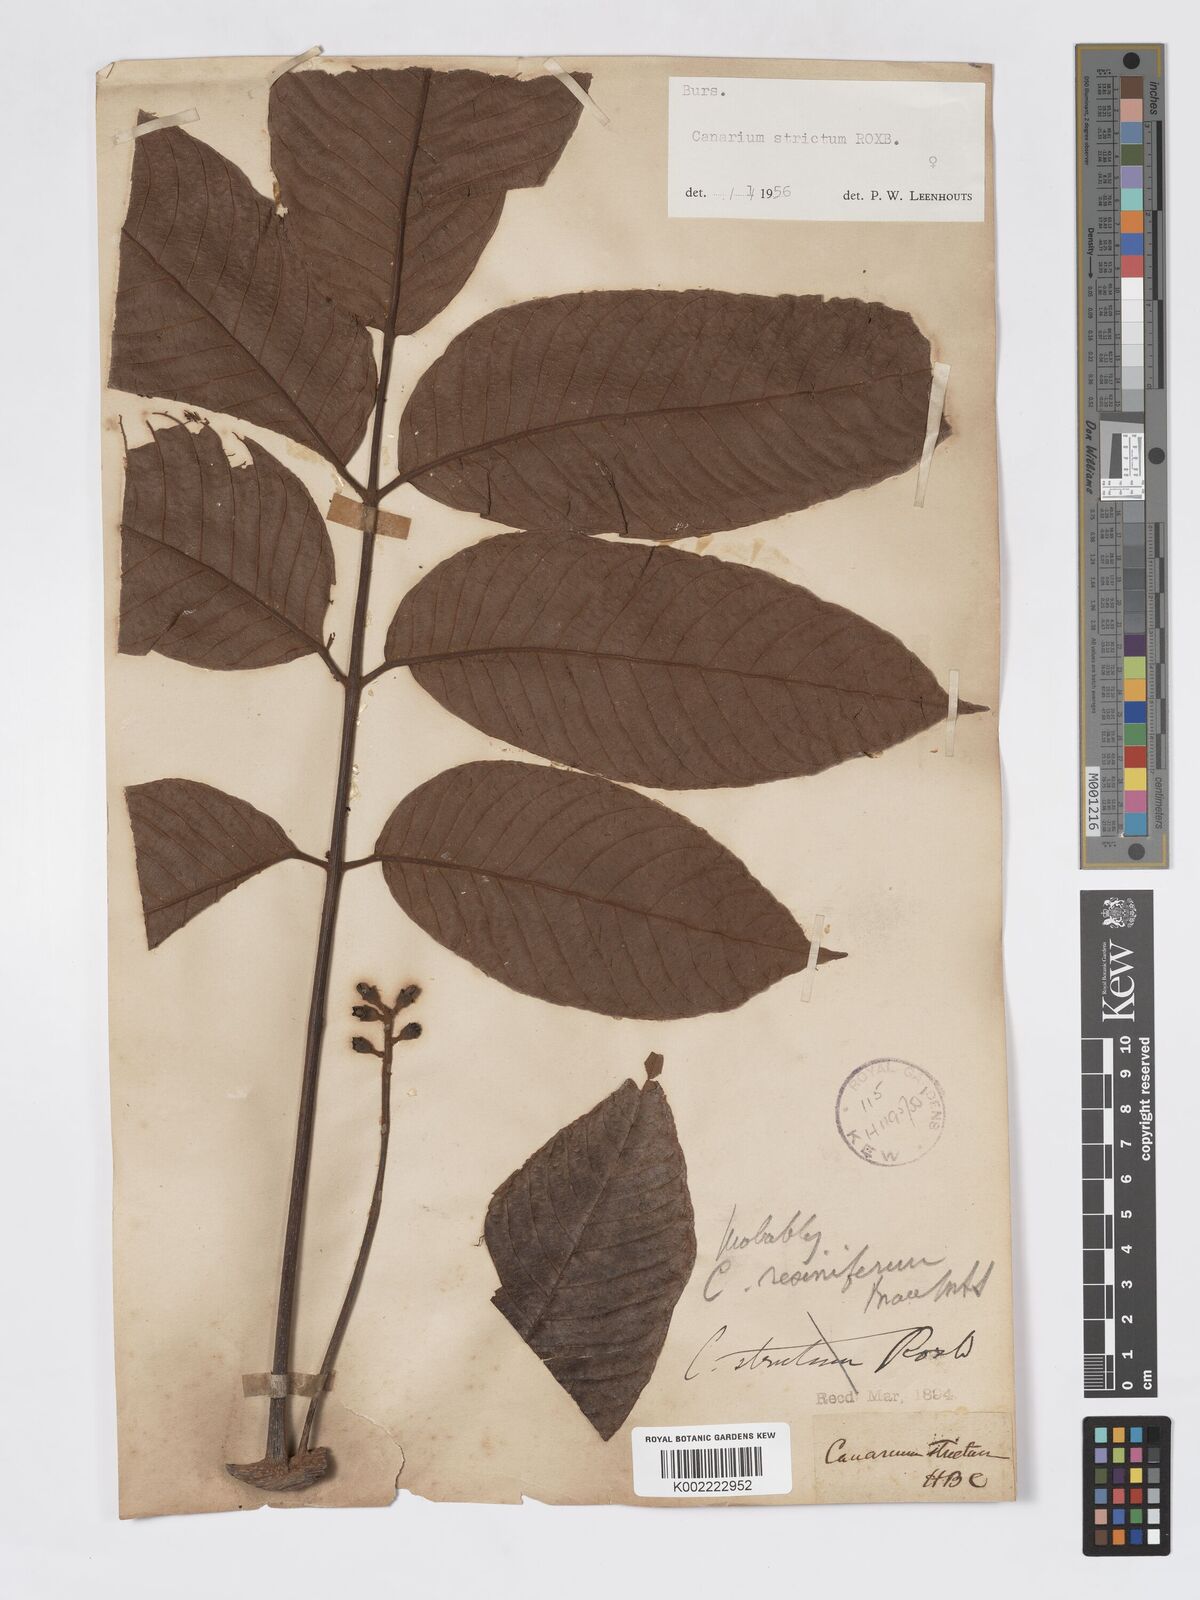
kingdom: Plantae
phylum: Tracheophyta
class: Magnoliopsida
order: Sapindales
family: Burseraceae
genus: Canarium
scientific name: Canarium strictum
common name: Indian white-mahogany
